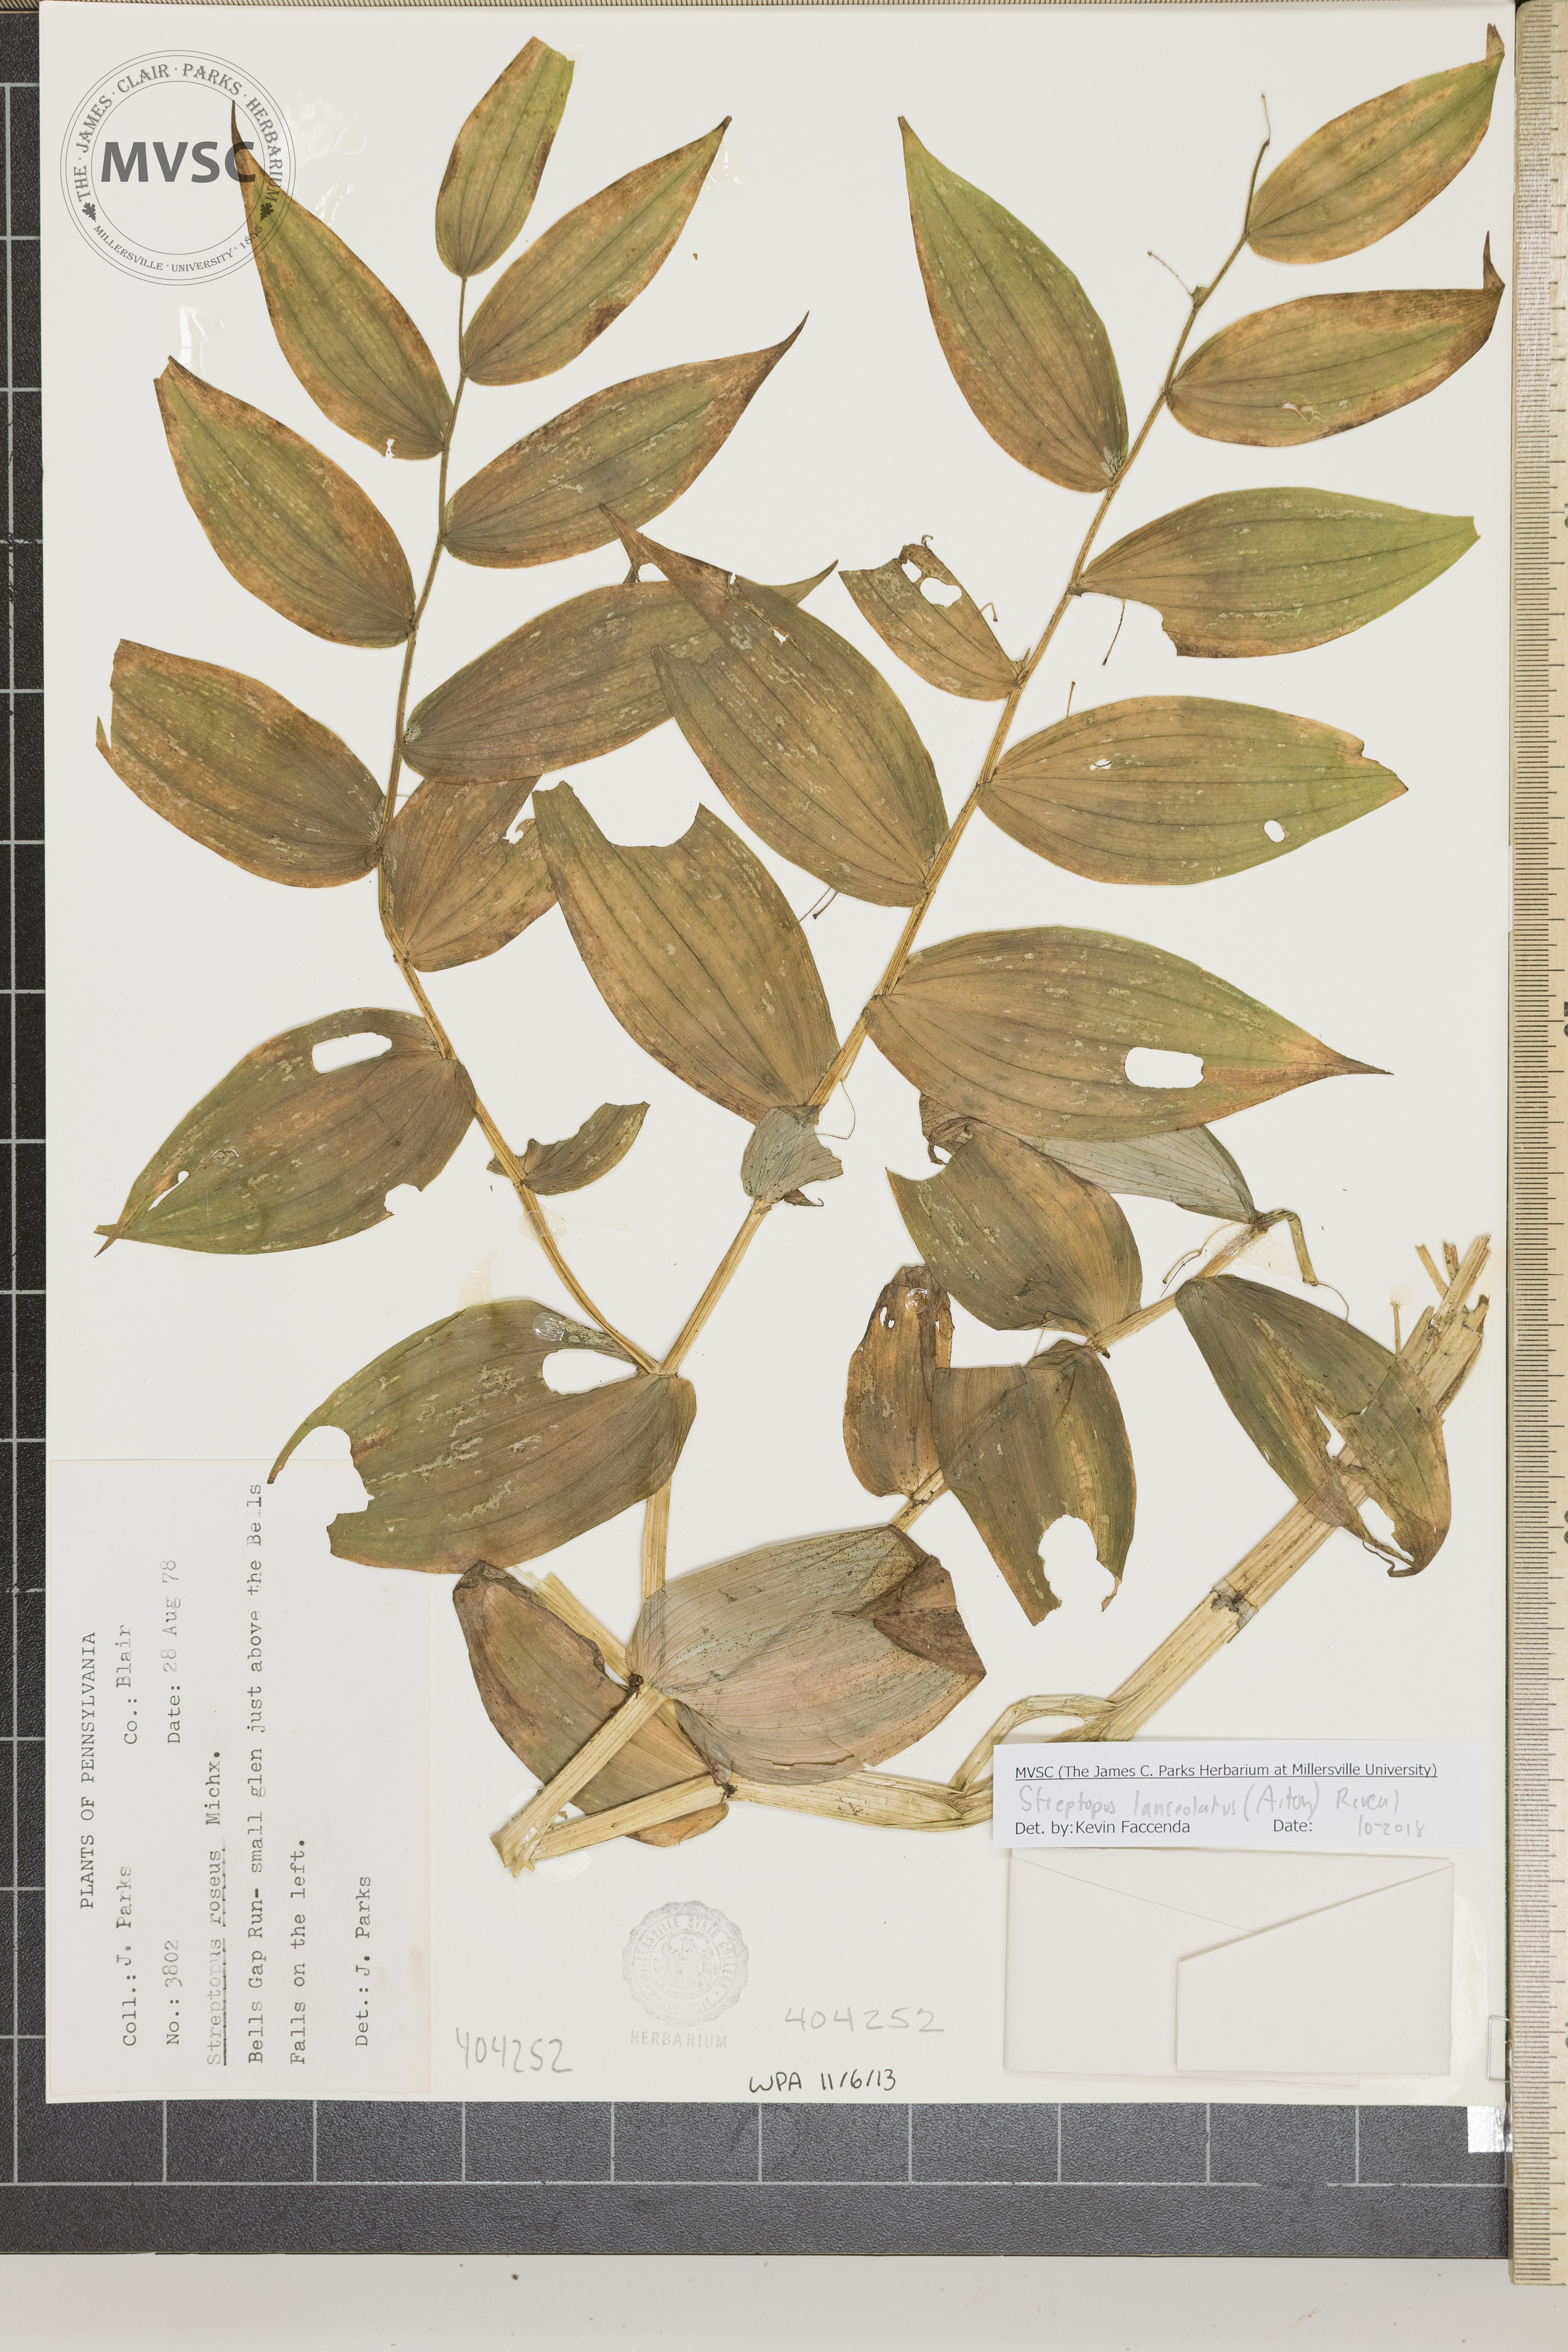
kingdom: Plantae
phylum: Tracheophyta
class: Liliopsida
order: Liliales
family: Liliaceae
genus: Streptopus
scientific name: Streptopus lanceolatus
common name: Rose mandarin
